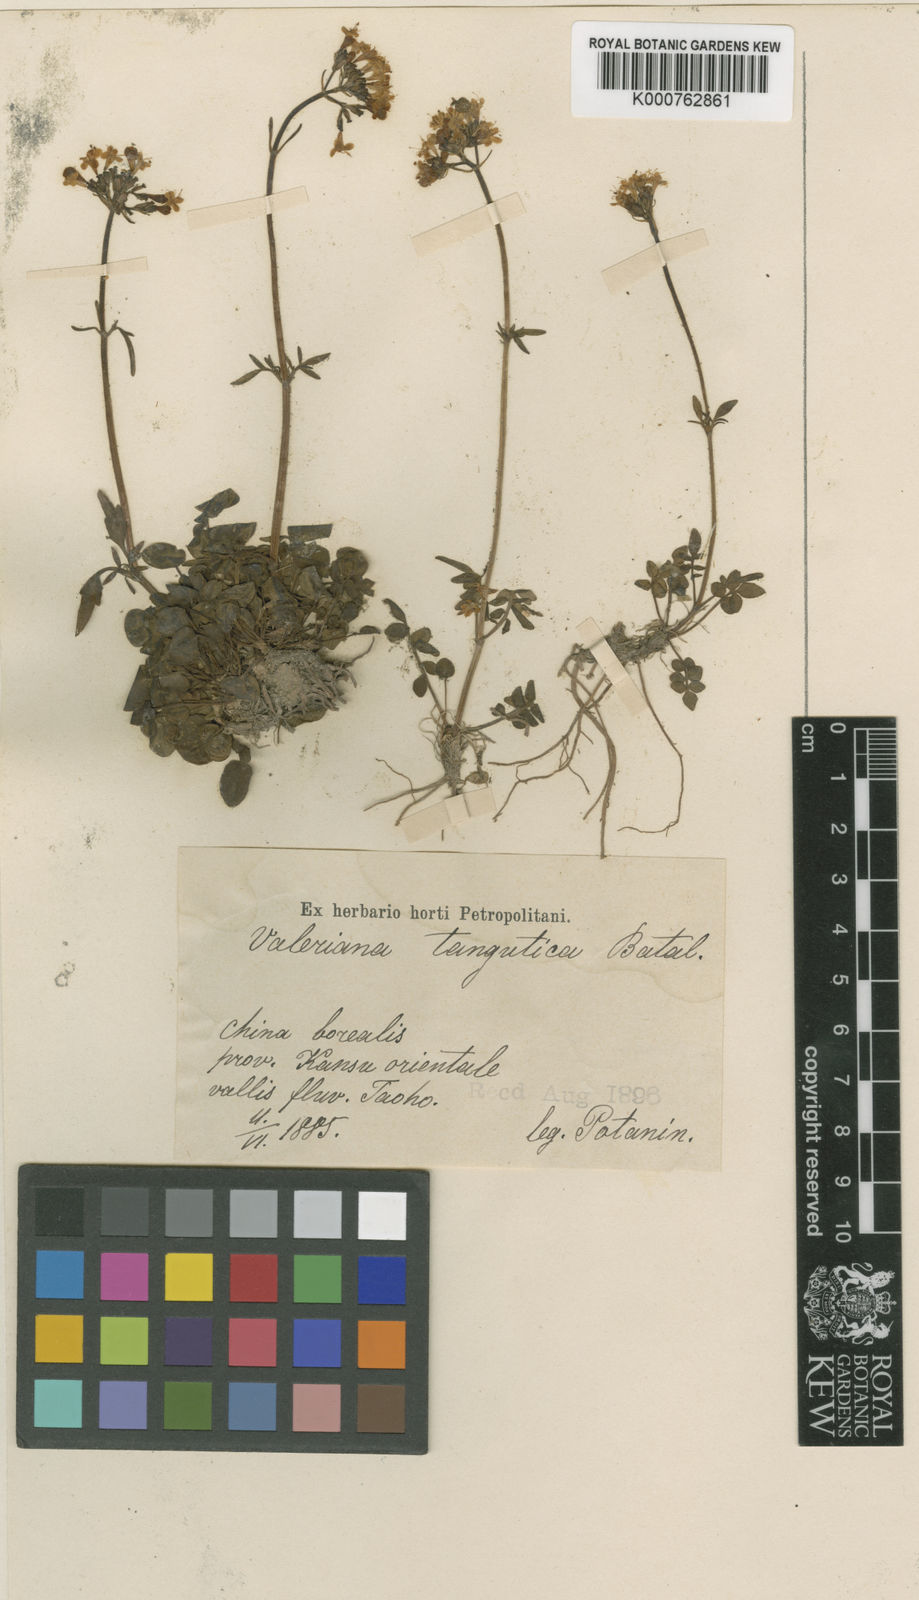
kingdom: Plantae
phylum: Tracheophyta
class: Magnoliopsida
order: Dipsacales
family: Caprifoliaceae
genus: Valeriana
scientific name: Valeriana tangutica
